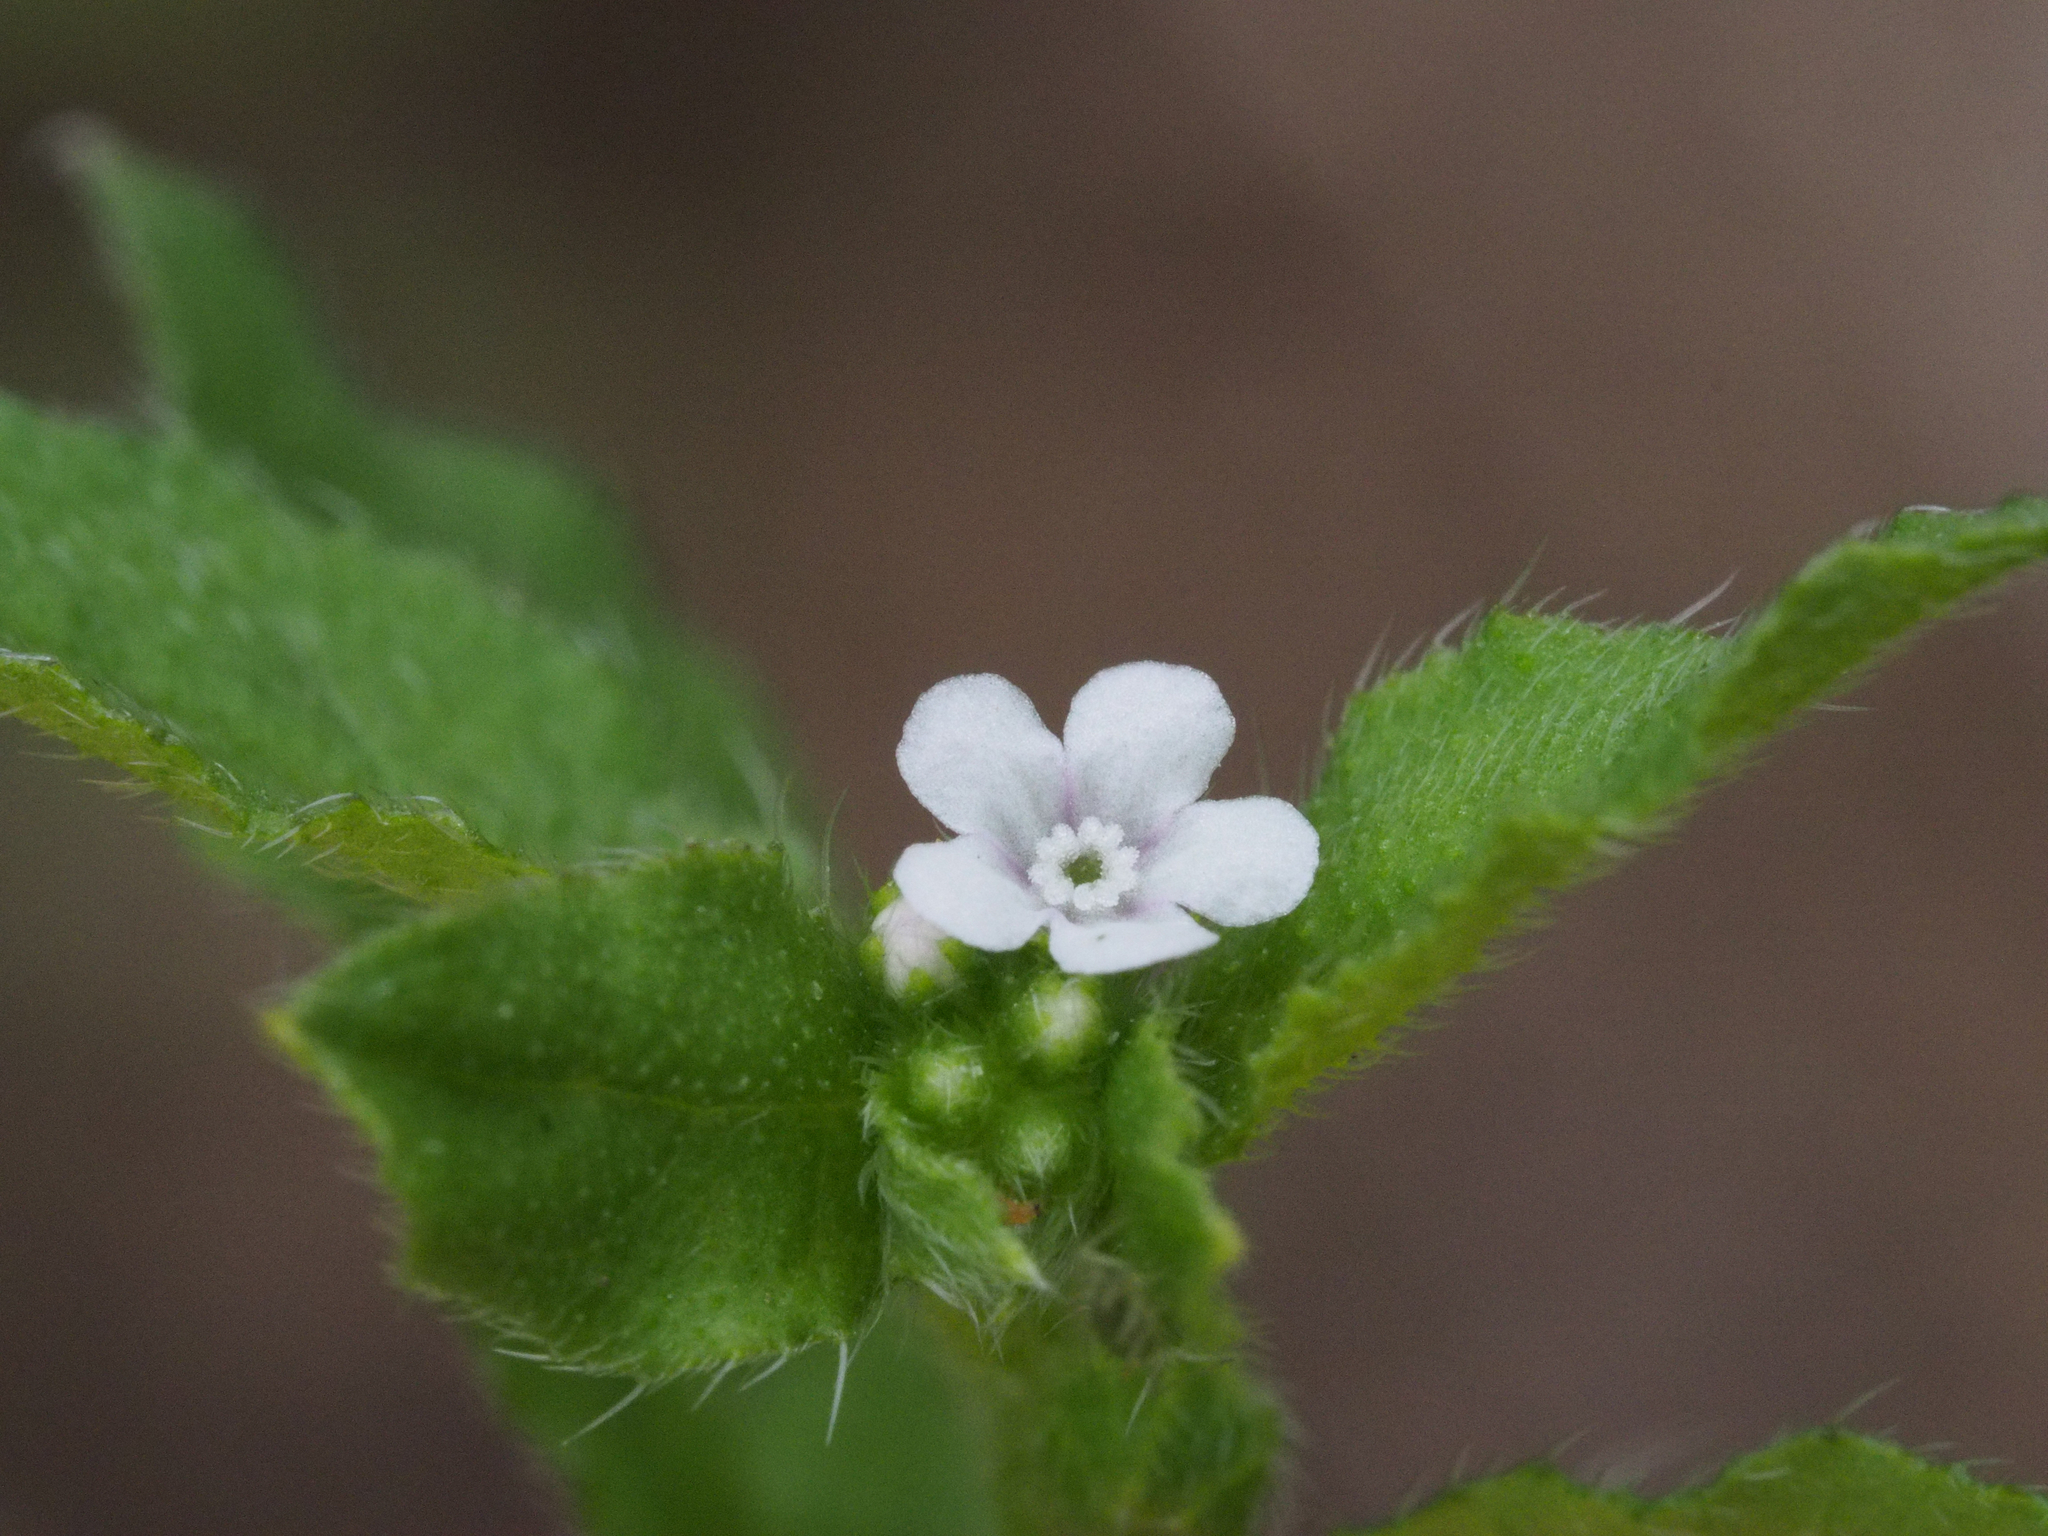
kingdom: Plantae
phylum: Tracheophyta
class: Magnoliopsida
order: Boraginales
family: Boraginaceae
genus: Bothriospermum
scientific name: Bothriospermum zeylanicum
